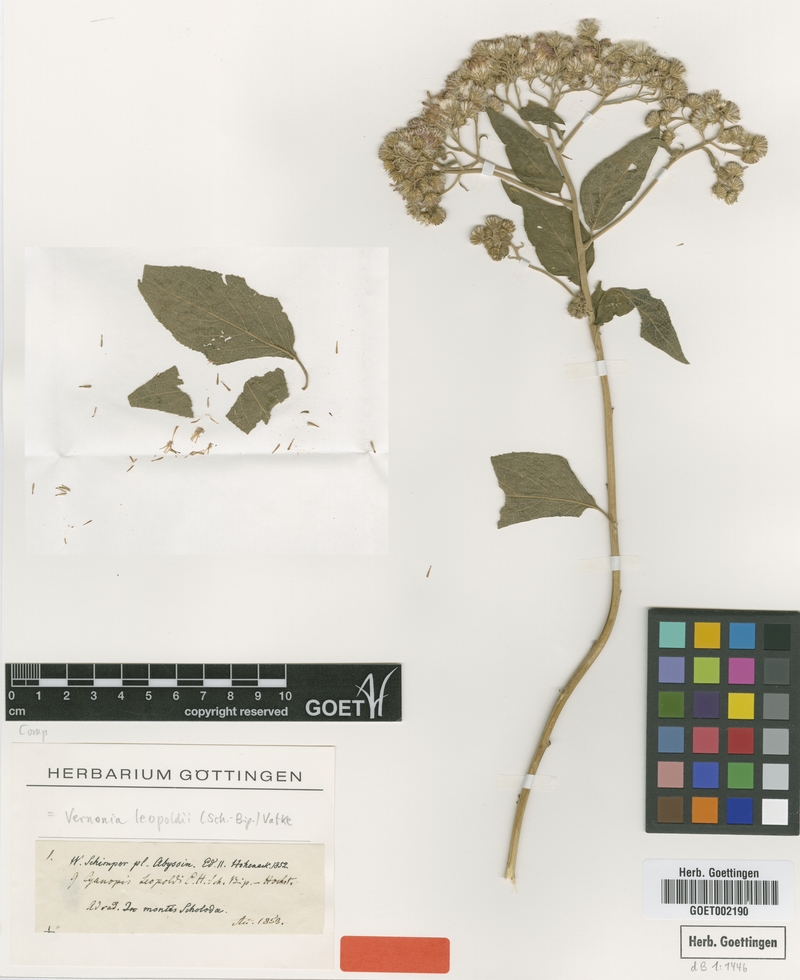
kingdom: Plantae
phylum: Tracheophyta
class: Magnoliopsida
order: Asterales
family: Asteraceae
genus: Orbivestus
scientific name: Orbivestus leopoldii
